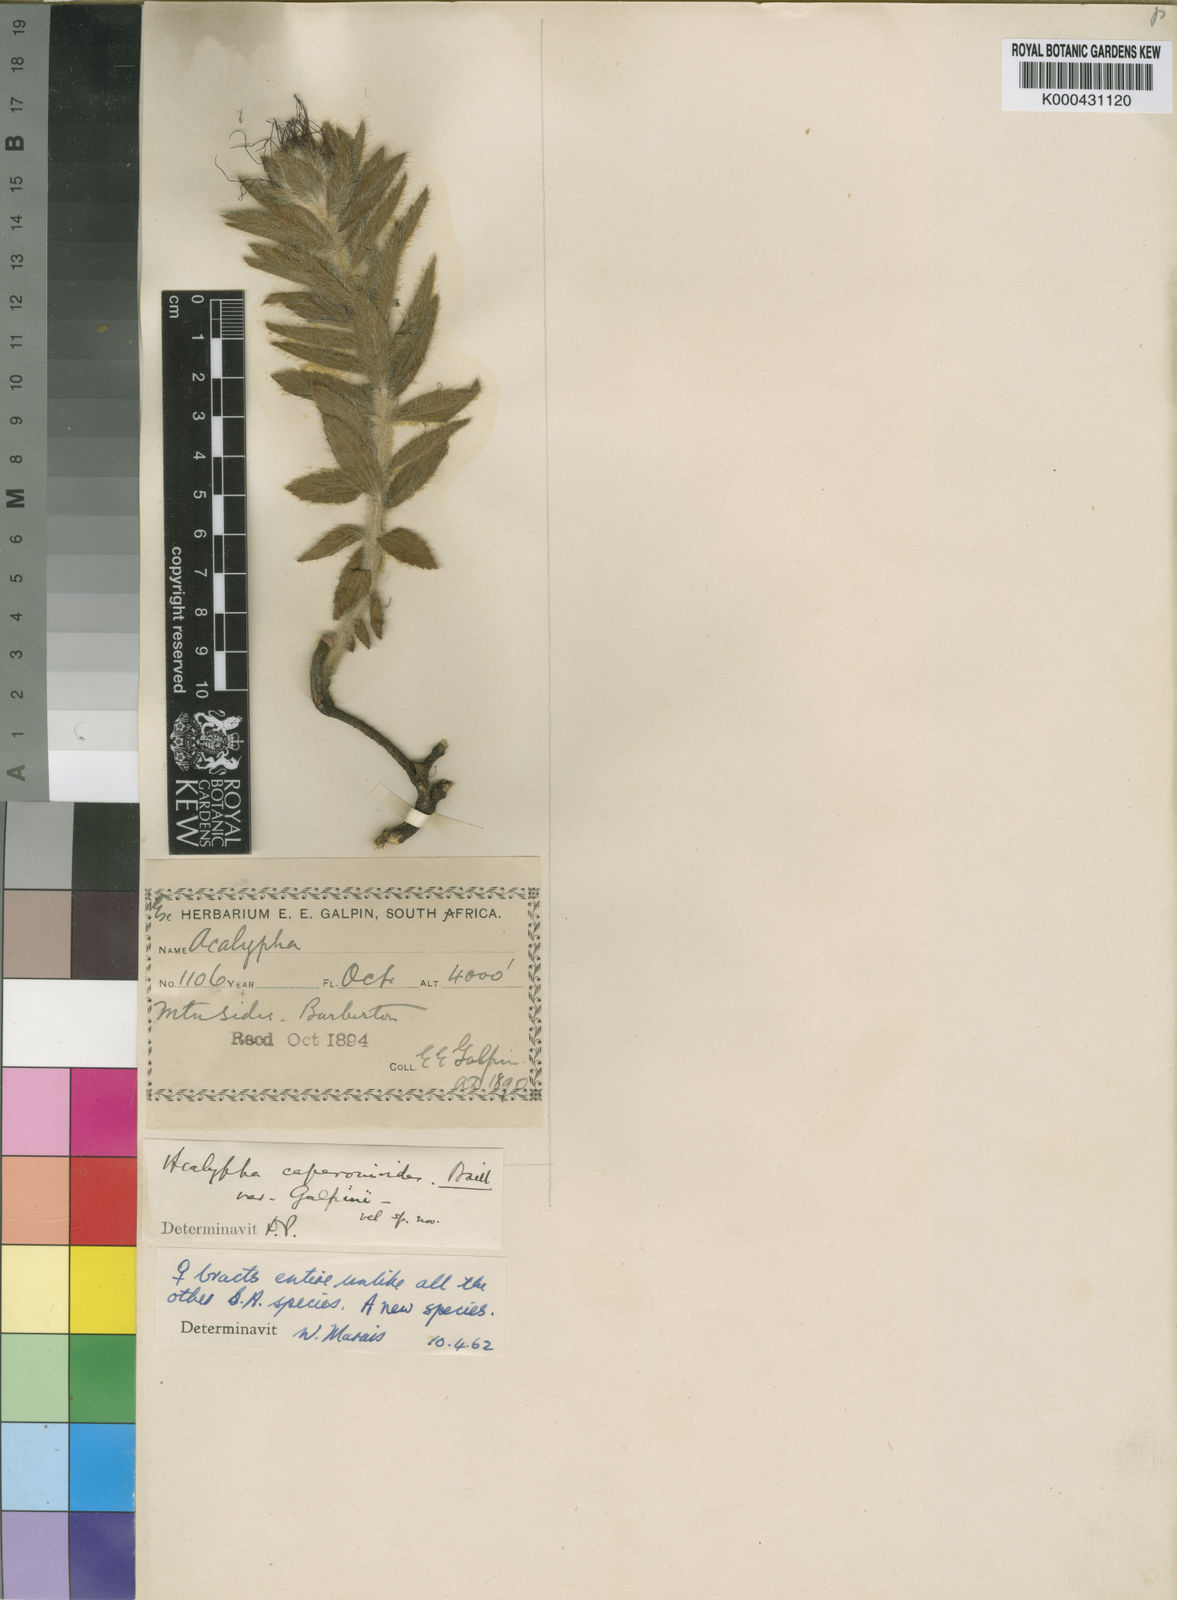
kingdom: Plantae
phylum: Tracheophyta
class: Magnoliopsida
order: Malpighiales
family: Euphorbiaceae
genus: Acalypha
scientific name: Acalypha caperonioides
